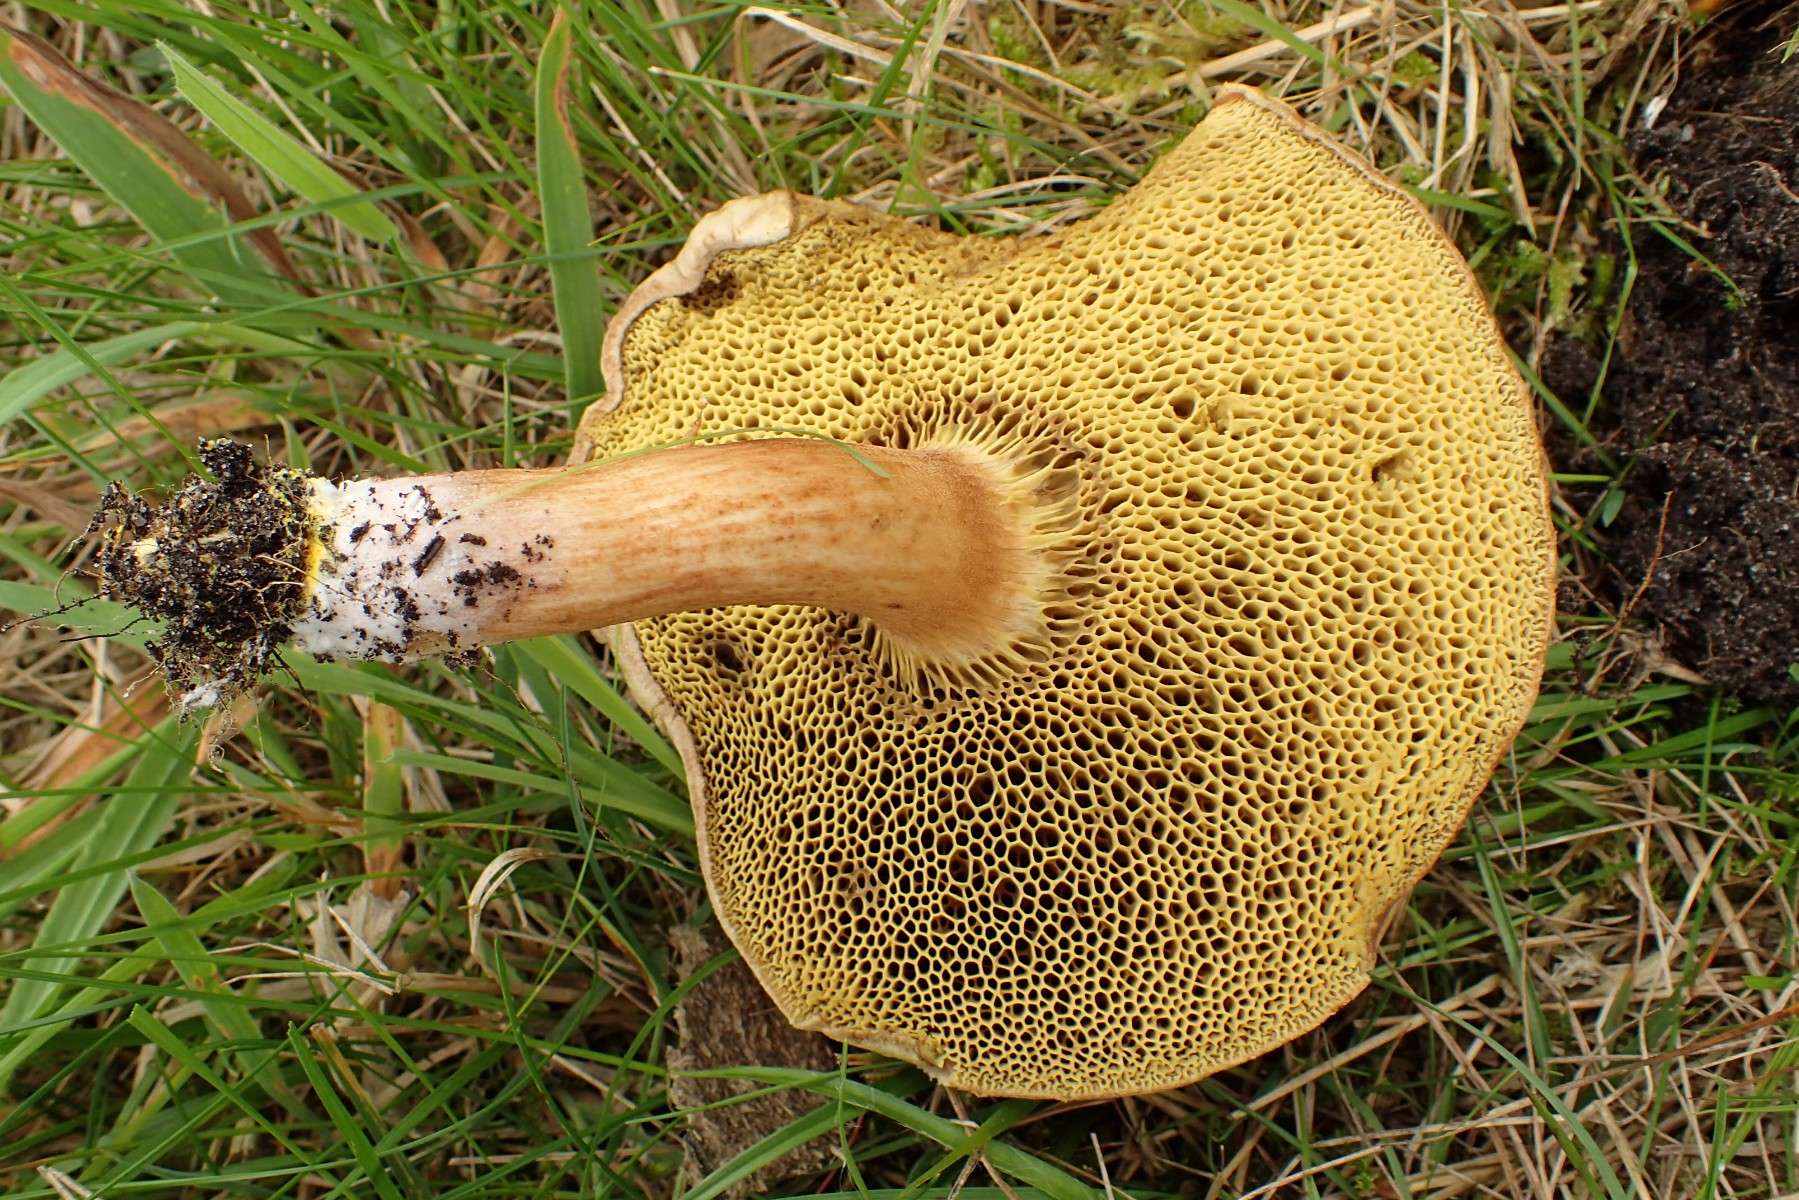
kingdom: Fungi
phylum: Basidiomycota
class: Agaricomycetes
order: Boletales
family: Boletaceae
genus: Xerocomus
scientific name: Xerocomus ferrugineus
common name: vaskeskinds-rørhat
